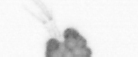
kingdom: Animalia
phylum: Arthropoda
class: Copepoda
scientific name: Copepoda
